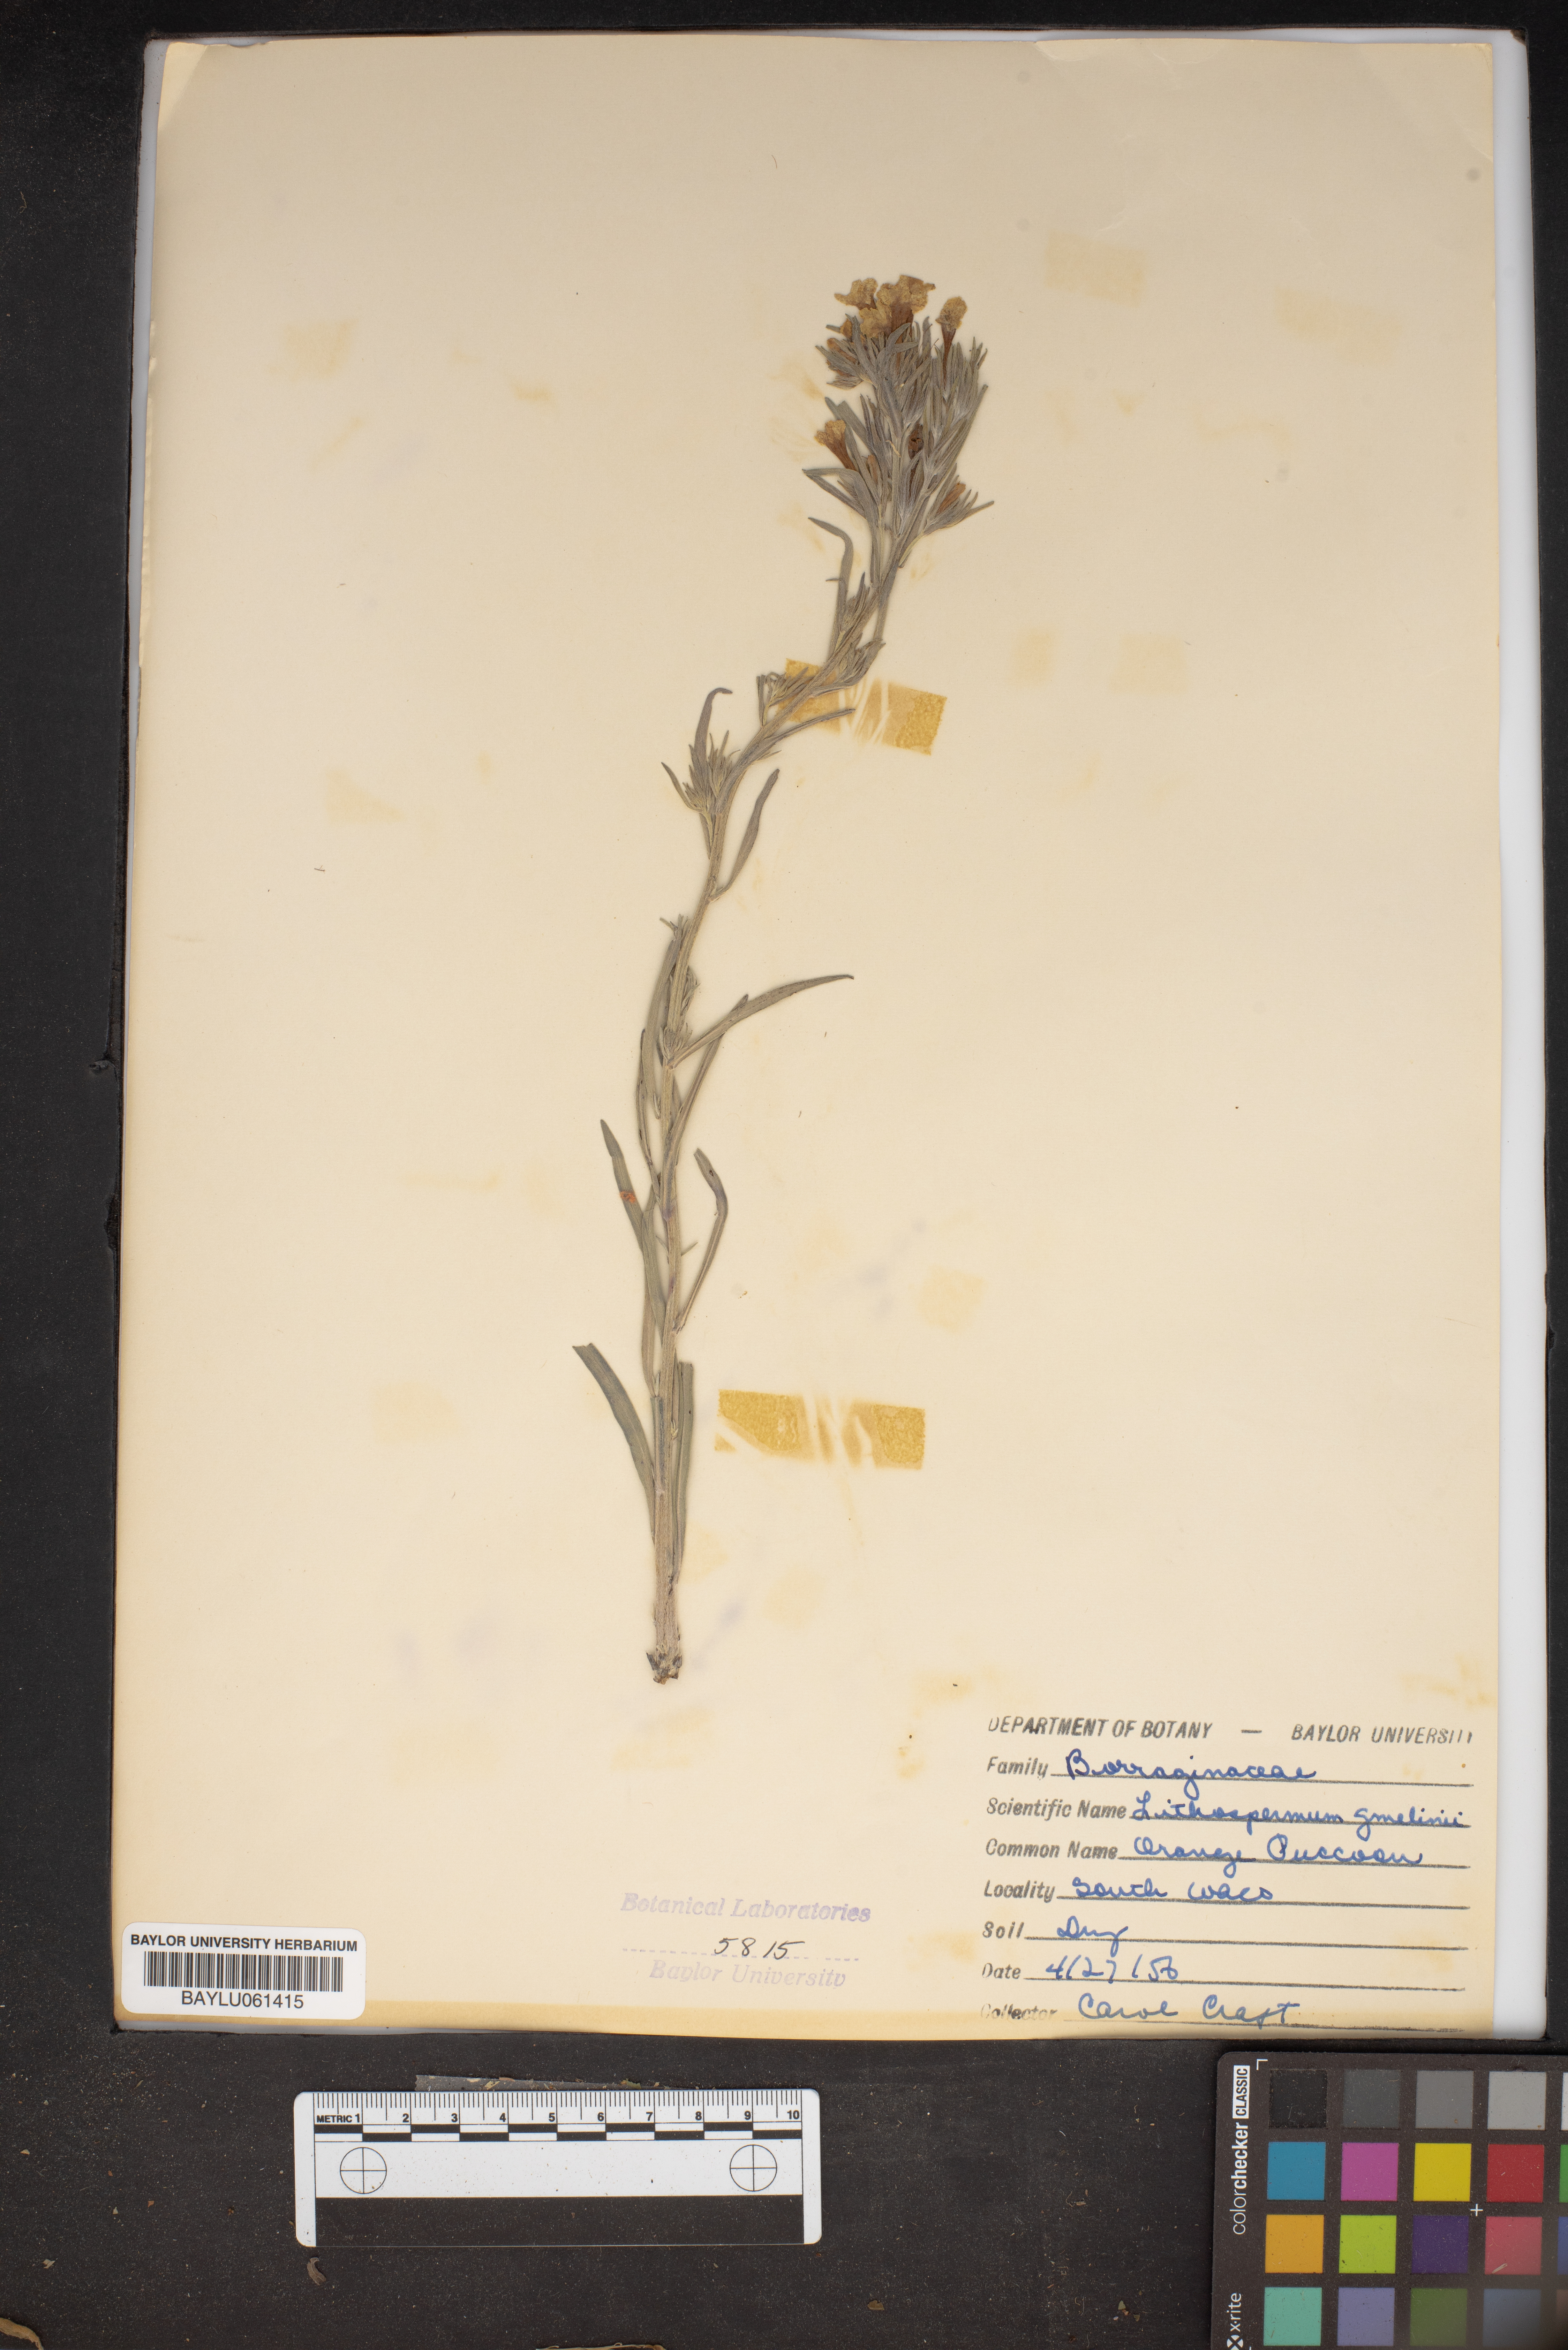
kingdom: Plantae
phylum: Tracheophyta
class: Magnoliopsida
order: Boraginales
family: Boraginaceae
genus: Lithospermum
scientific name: Lithospermum caroliniense
